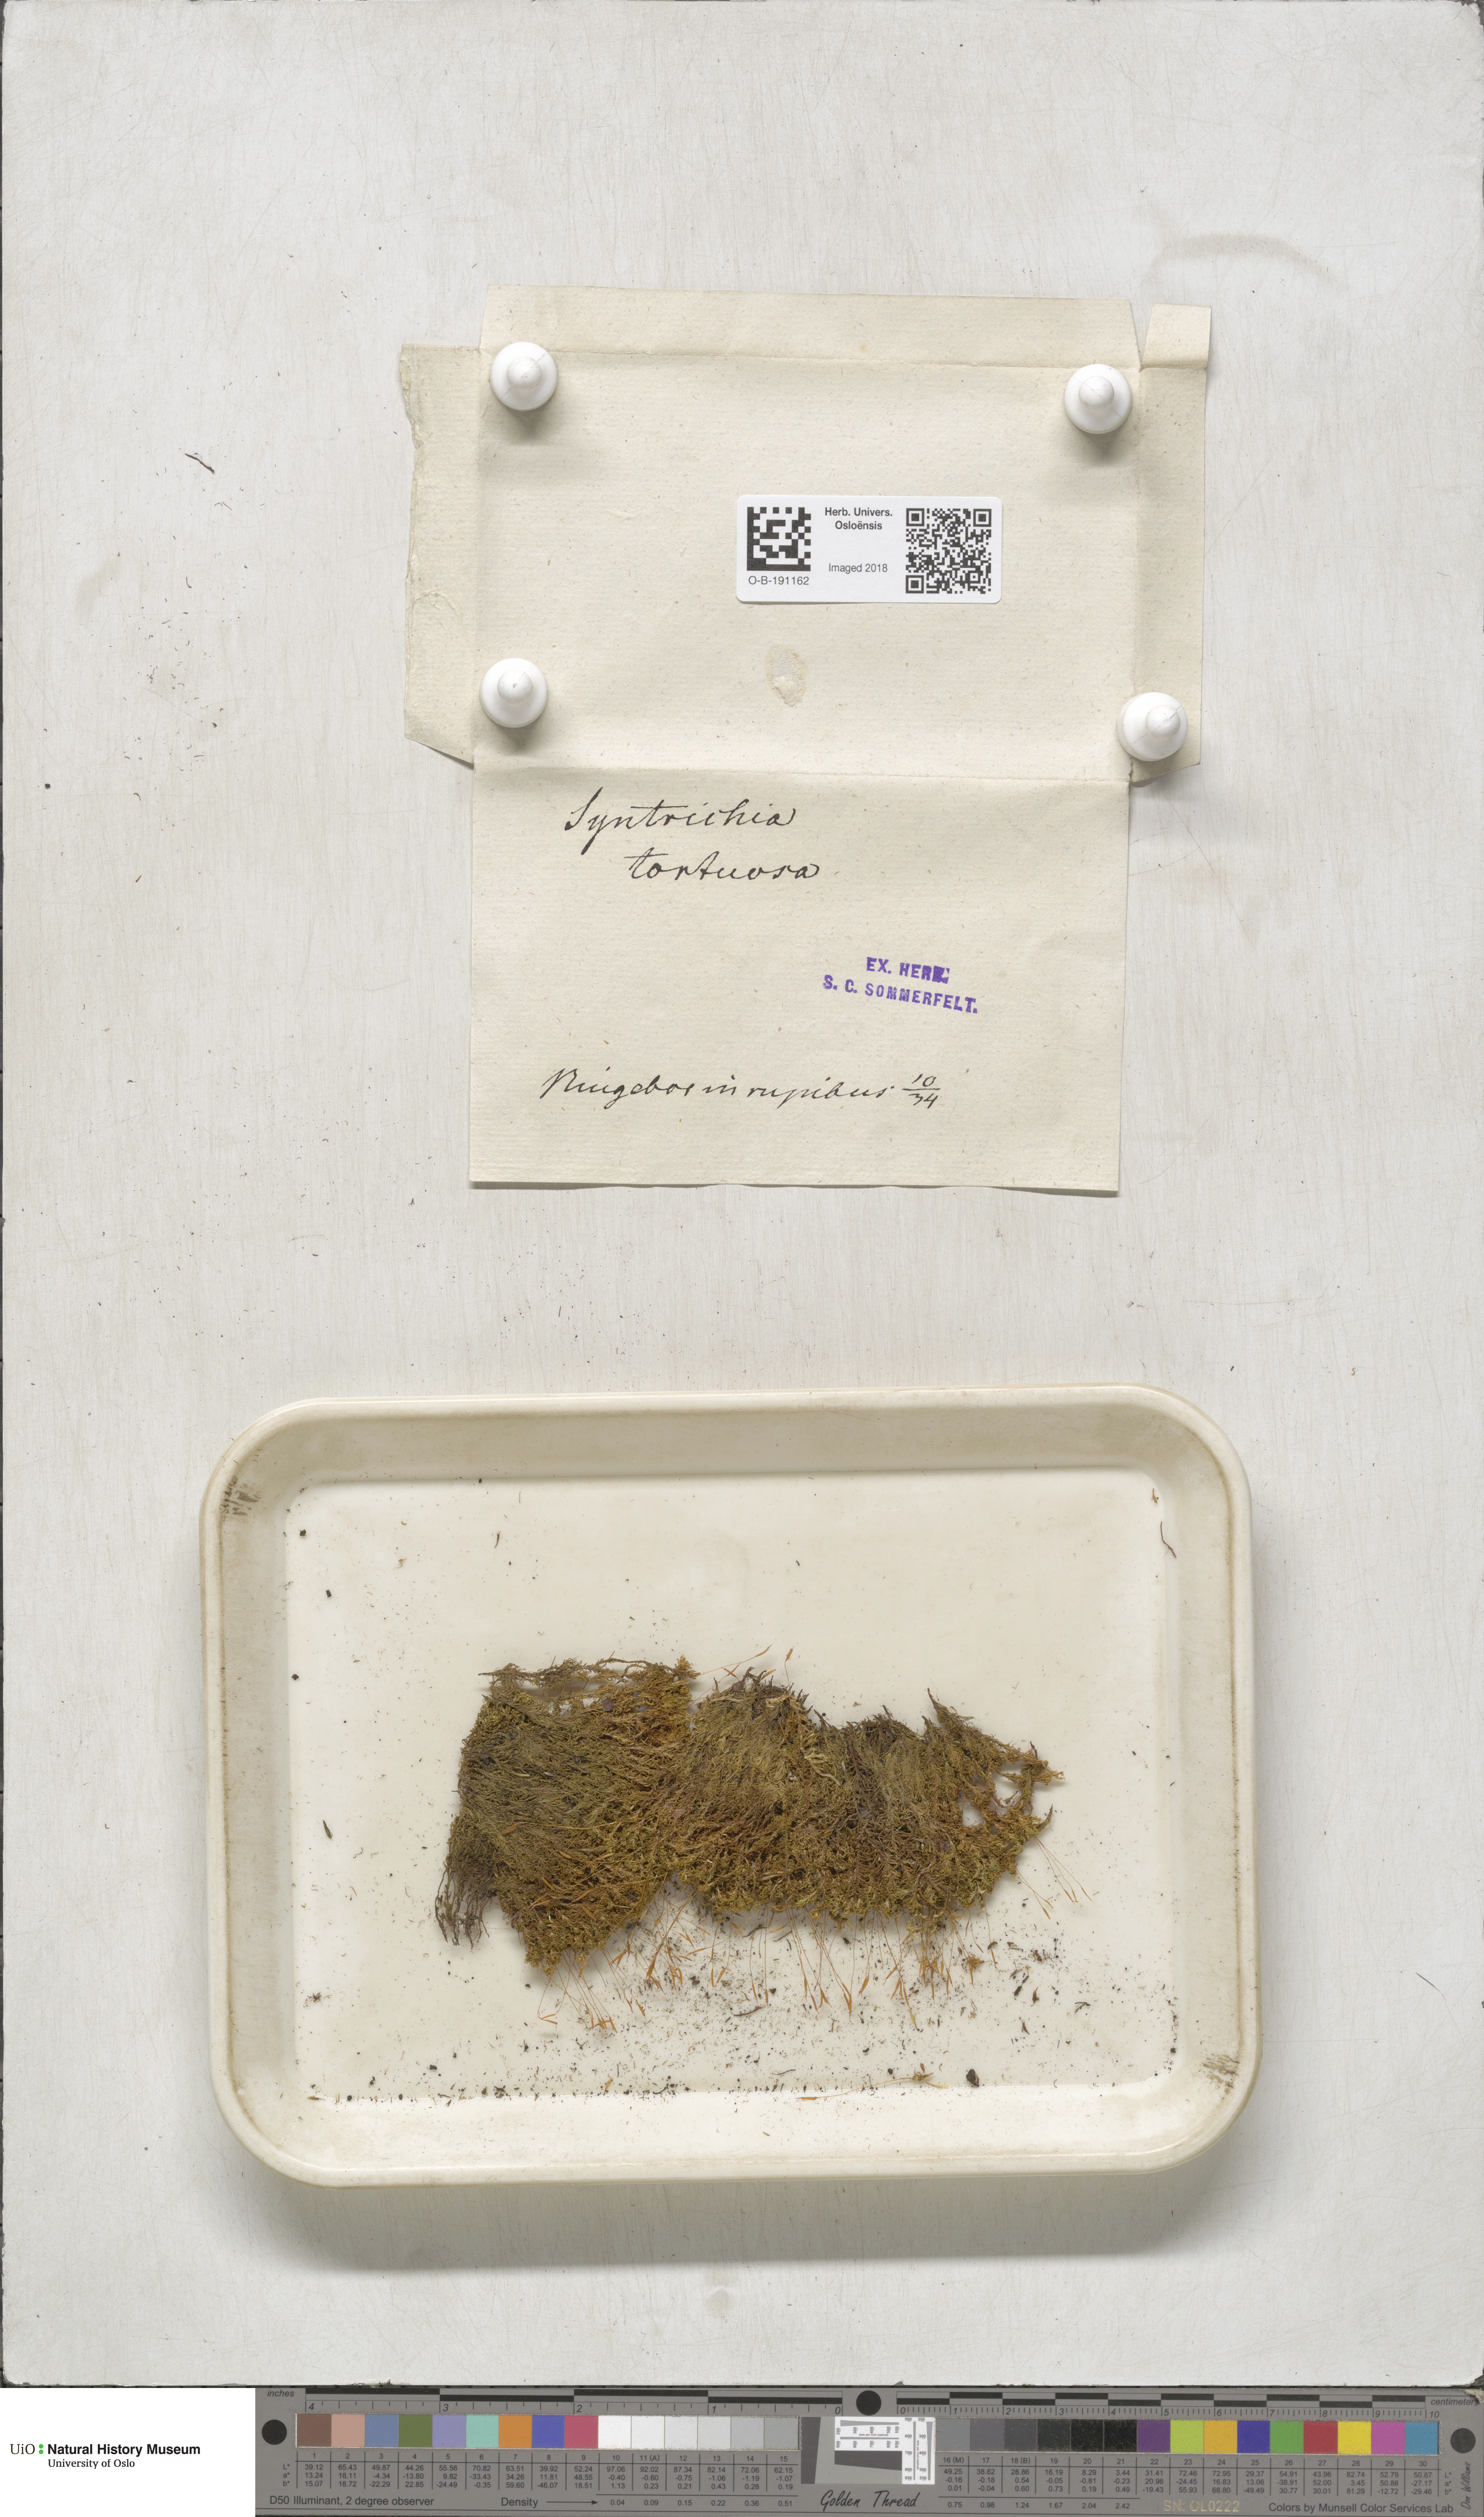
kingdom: Plantae
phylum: Bryophyta
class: Bryopsida
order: Pottiales
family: Pottiaceae
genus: Tortella
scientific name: Tortella tortuosa
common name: Frizzled crisp moss
